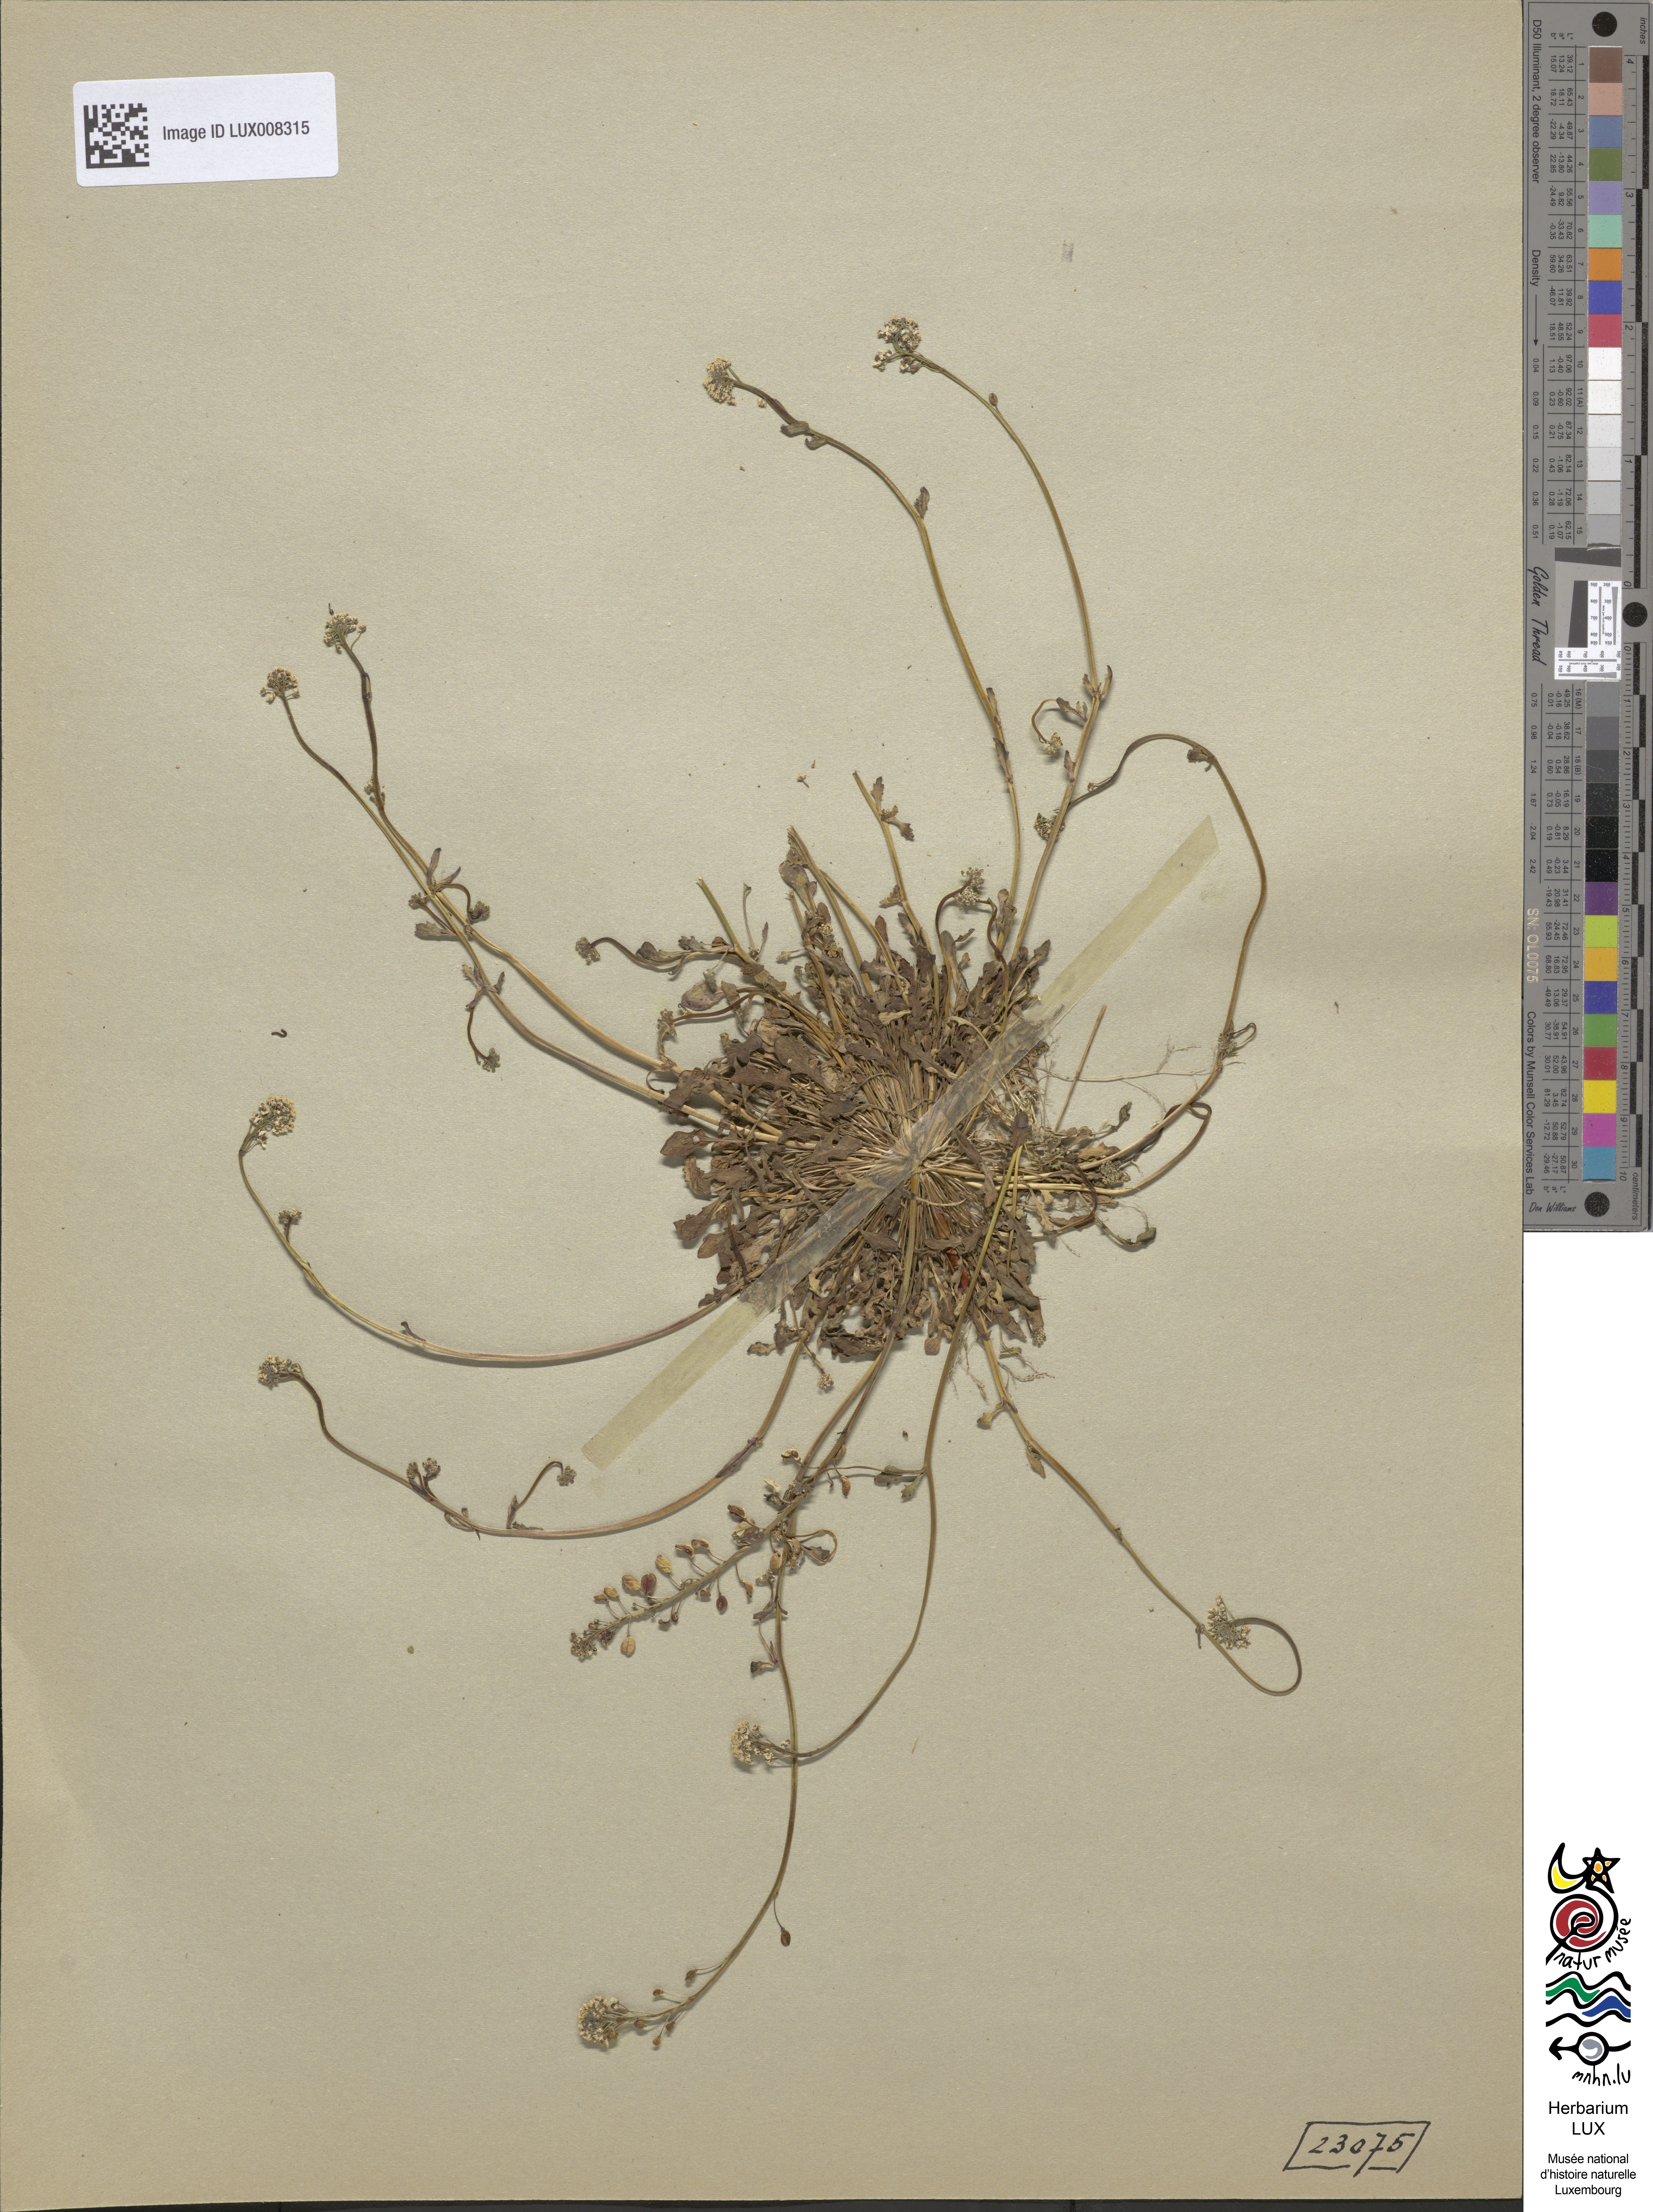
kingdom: Plantae
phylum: Tracheophyta
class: Magnoliopsida
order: Brassicales
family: Brassicaceae
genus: Teesdalia
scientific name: Teesdalia nudicaulis
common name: Shepherd's cress
